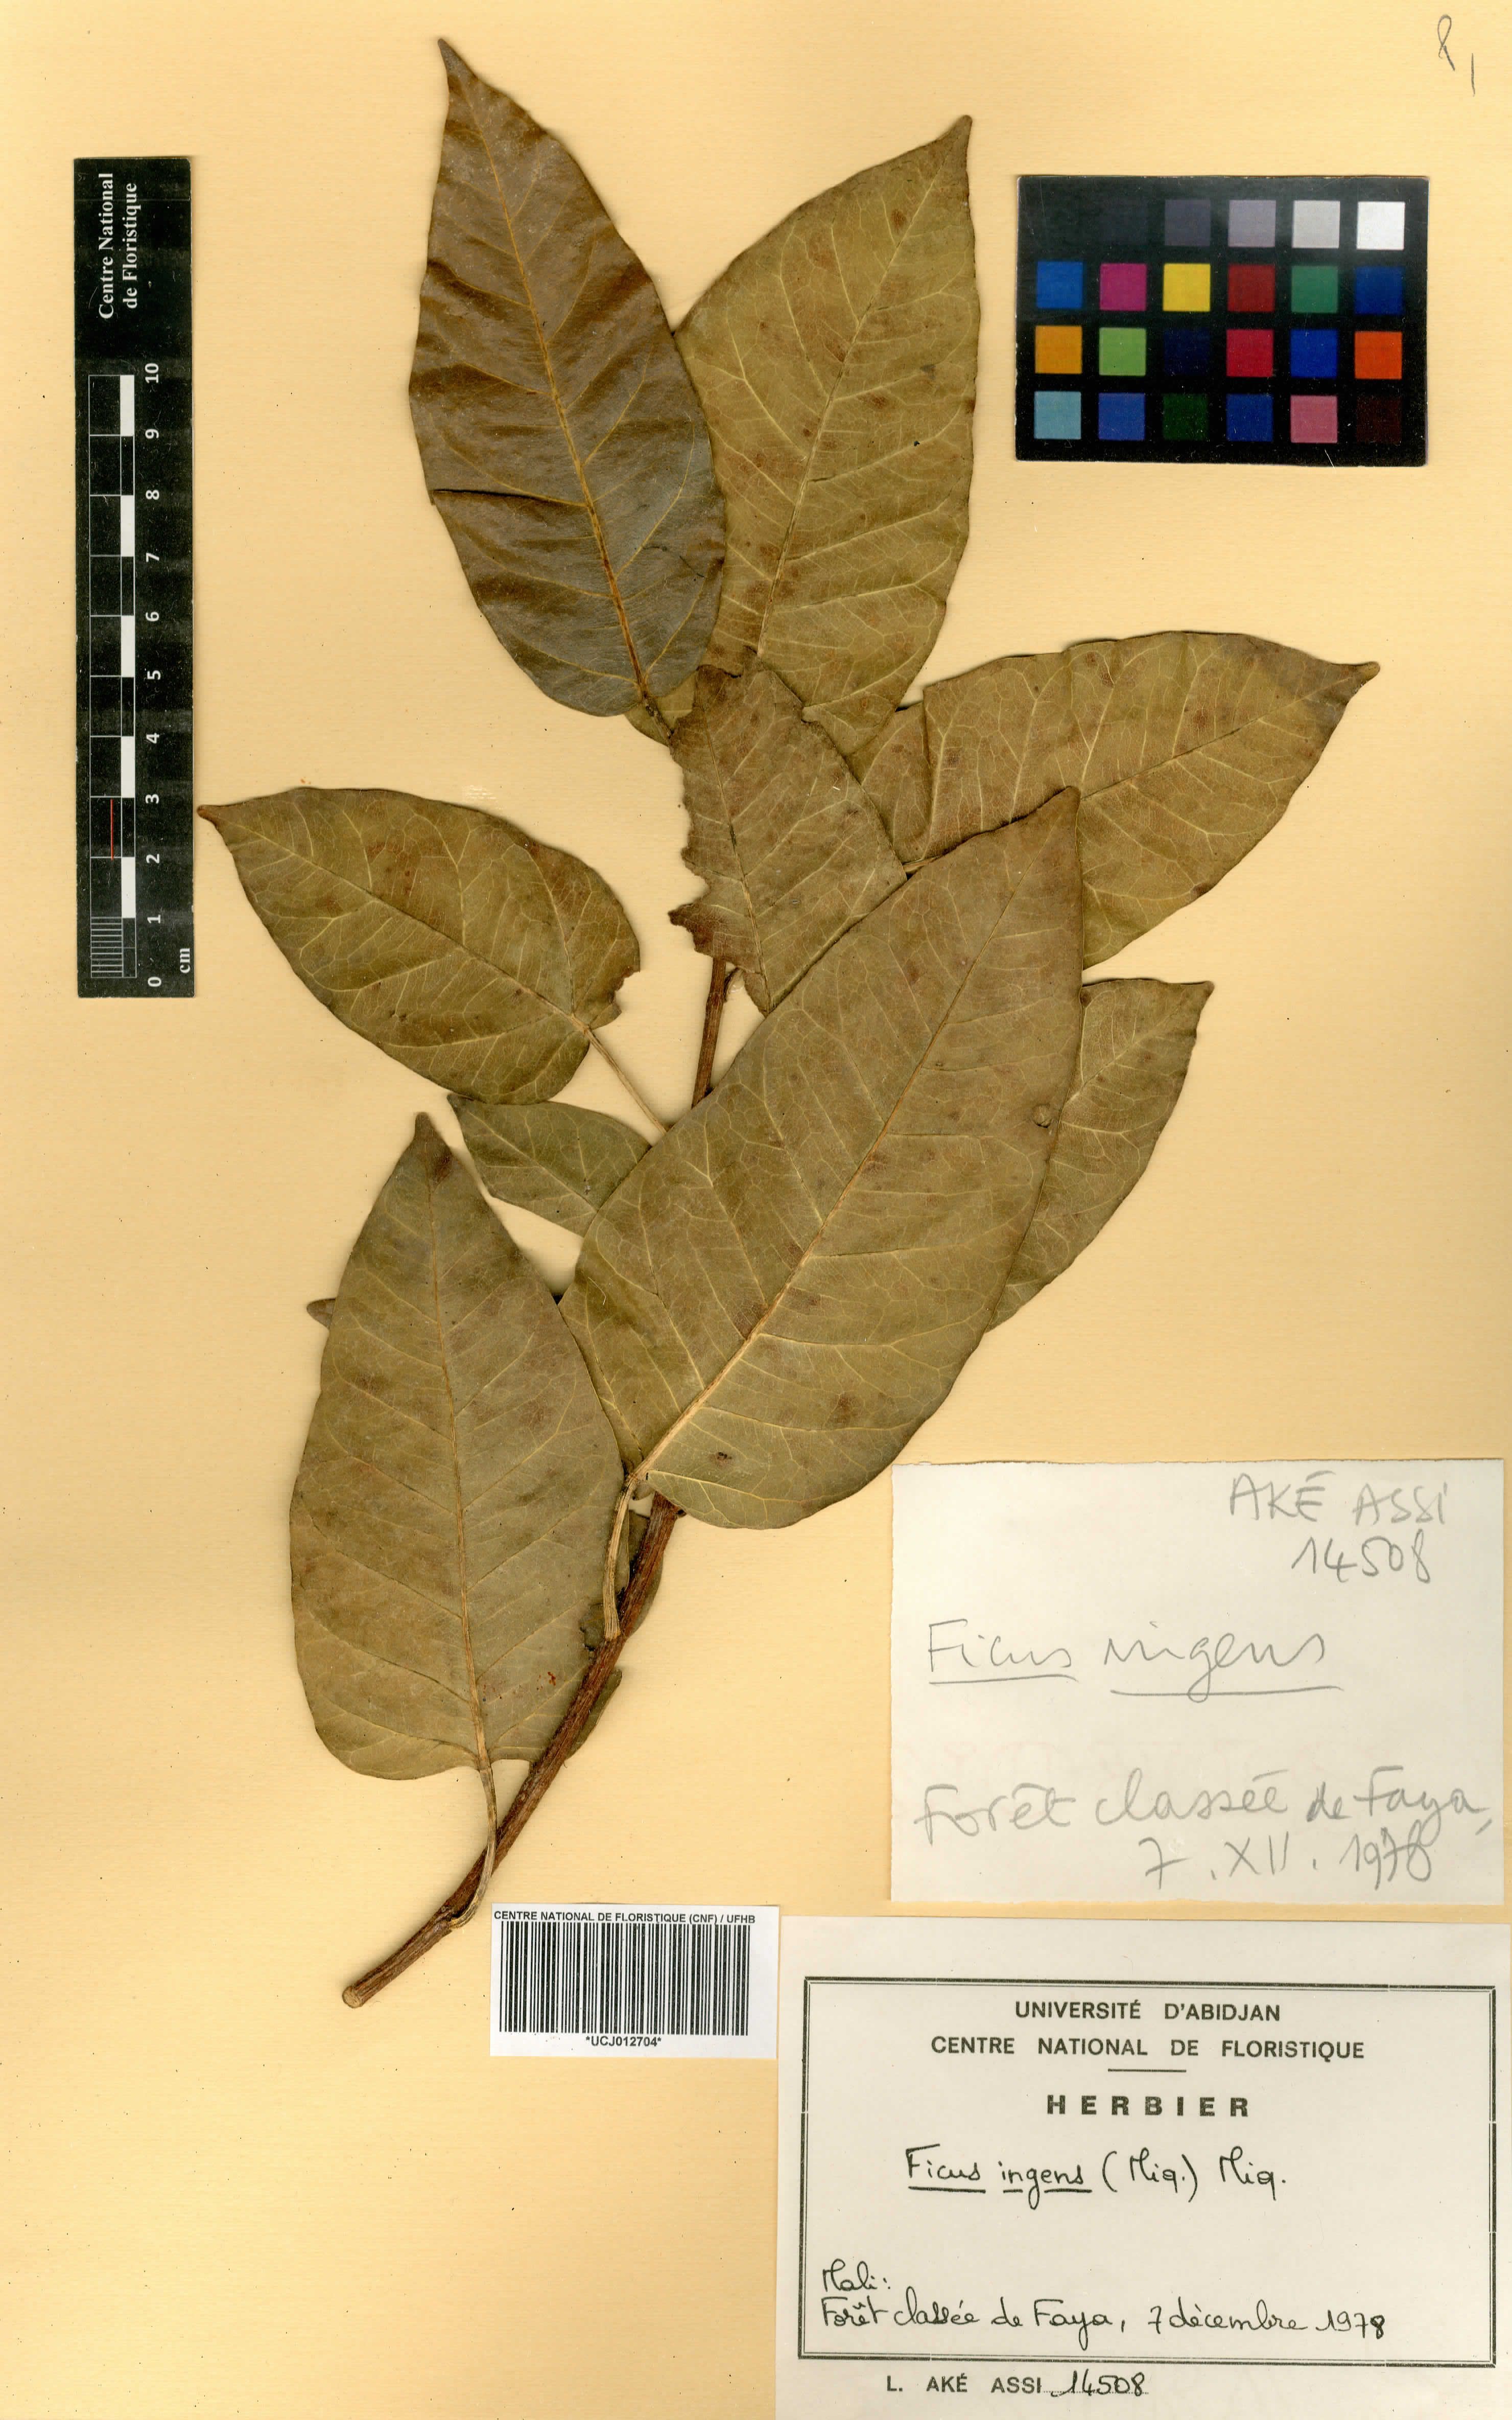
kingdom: Plantae
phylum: Tracheophyta
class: Magnoliopsida
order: Rosales
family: Moraceae
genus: Ficus
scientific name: Ficus ingens
